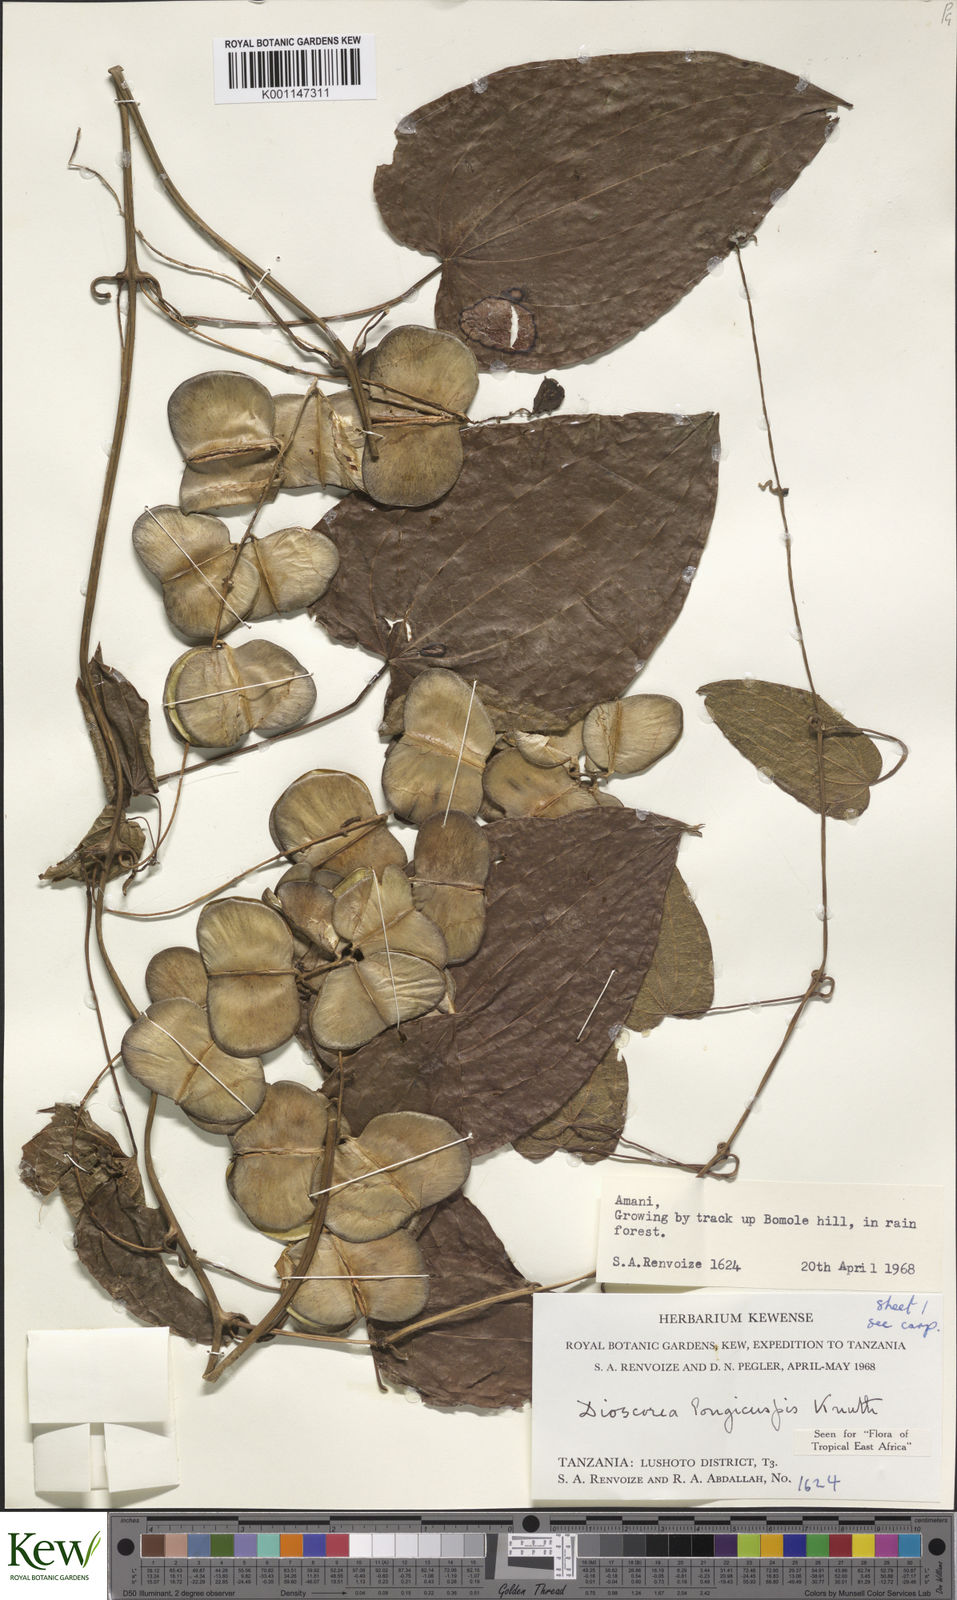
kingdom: Plantae
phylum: Tracheophyta
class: Liliopsida
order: Dioscoreales
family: Dioscoreaceae
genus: Dioscorea
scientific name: Dioscorea longicuspis
